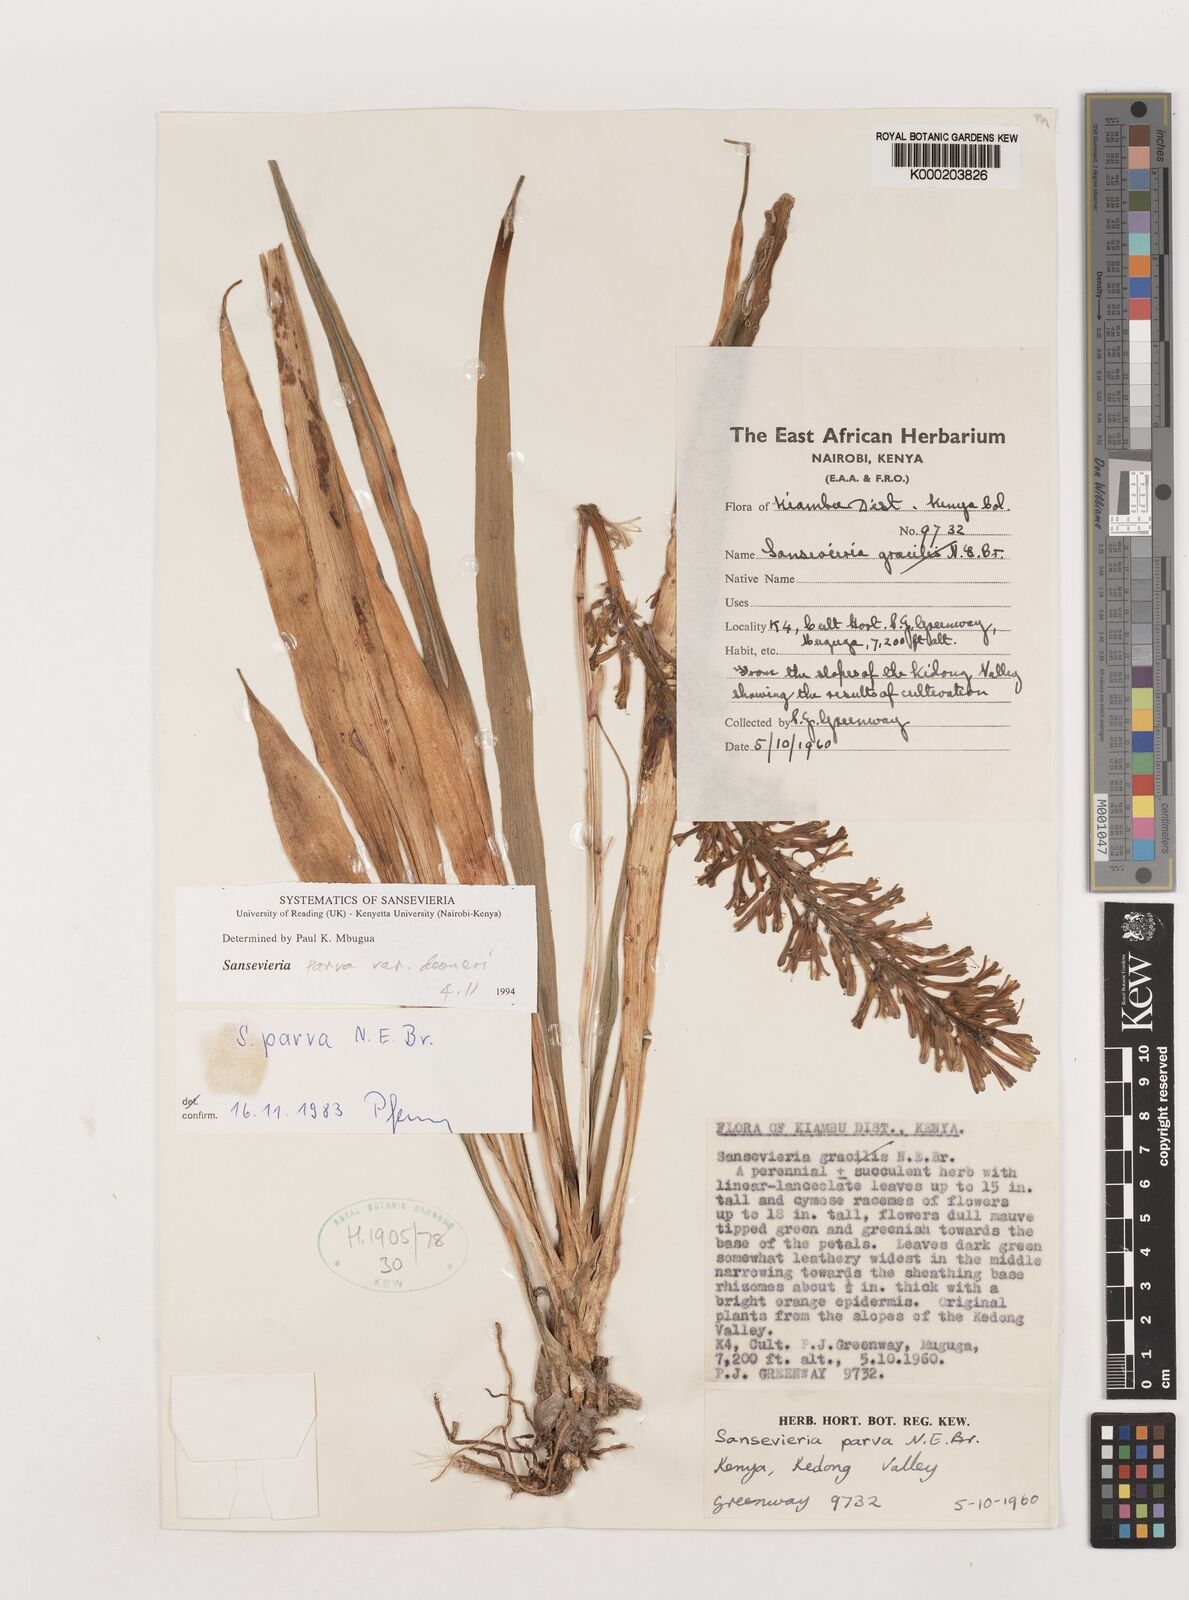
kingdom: Plantae
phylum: Tracheophyta
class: Liliopsida
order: Asparagales
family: Asparagaceae
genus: Dracaena
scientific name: Dracaena parva
